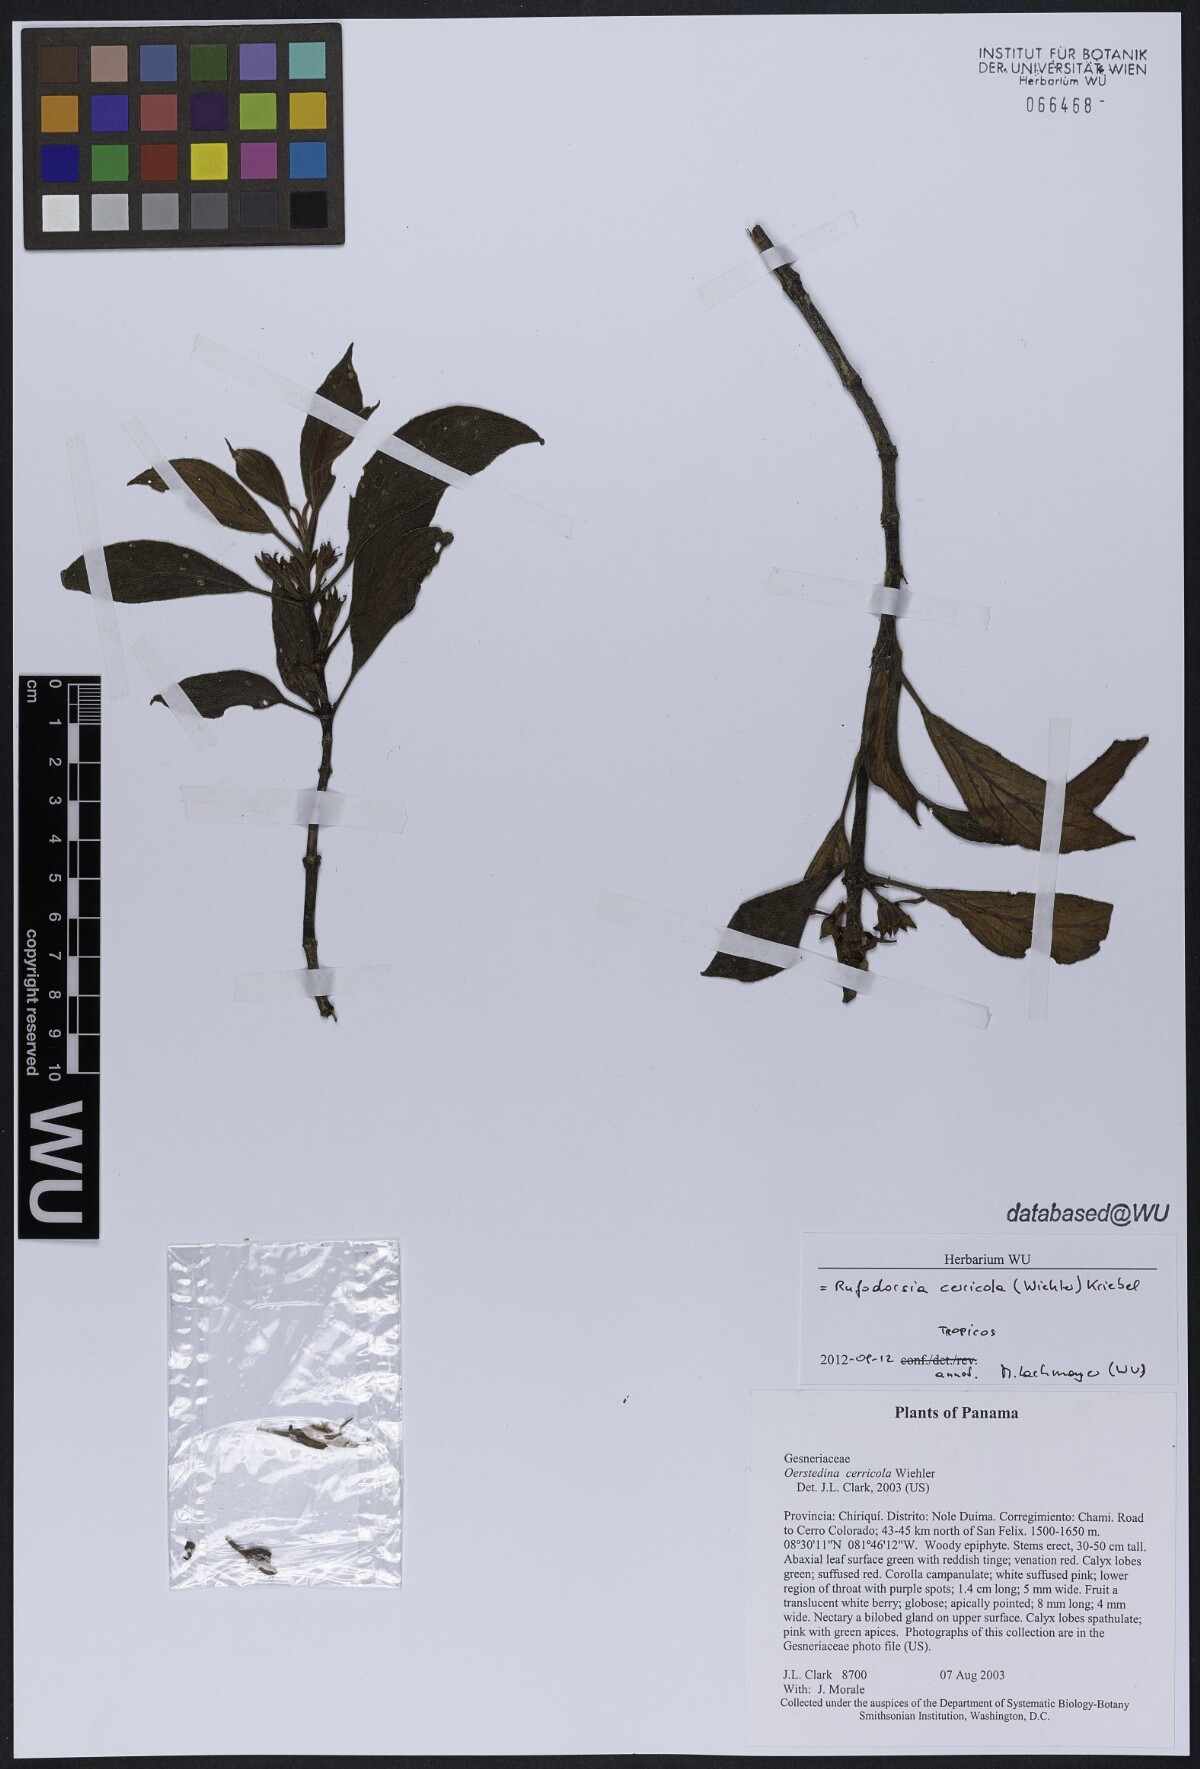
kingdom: Plantae
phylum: Tracheophyta
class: Magnoliopsida
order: Lamiales
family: Gesneriaceae
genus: Rufodorsia
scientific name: Rufodorsia cerricola
